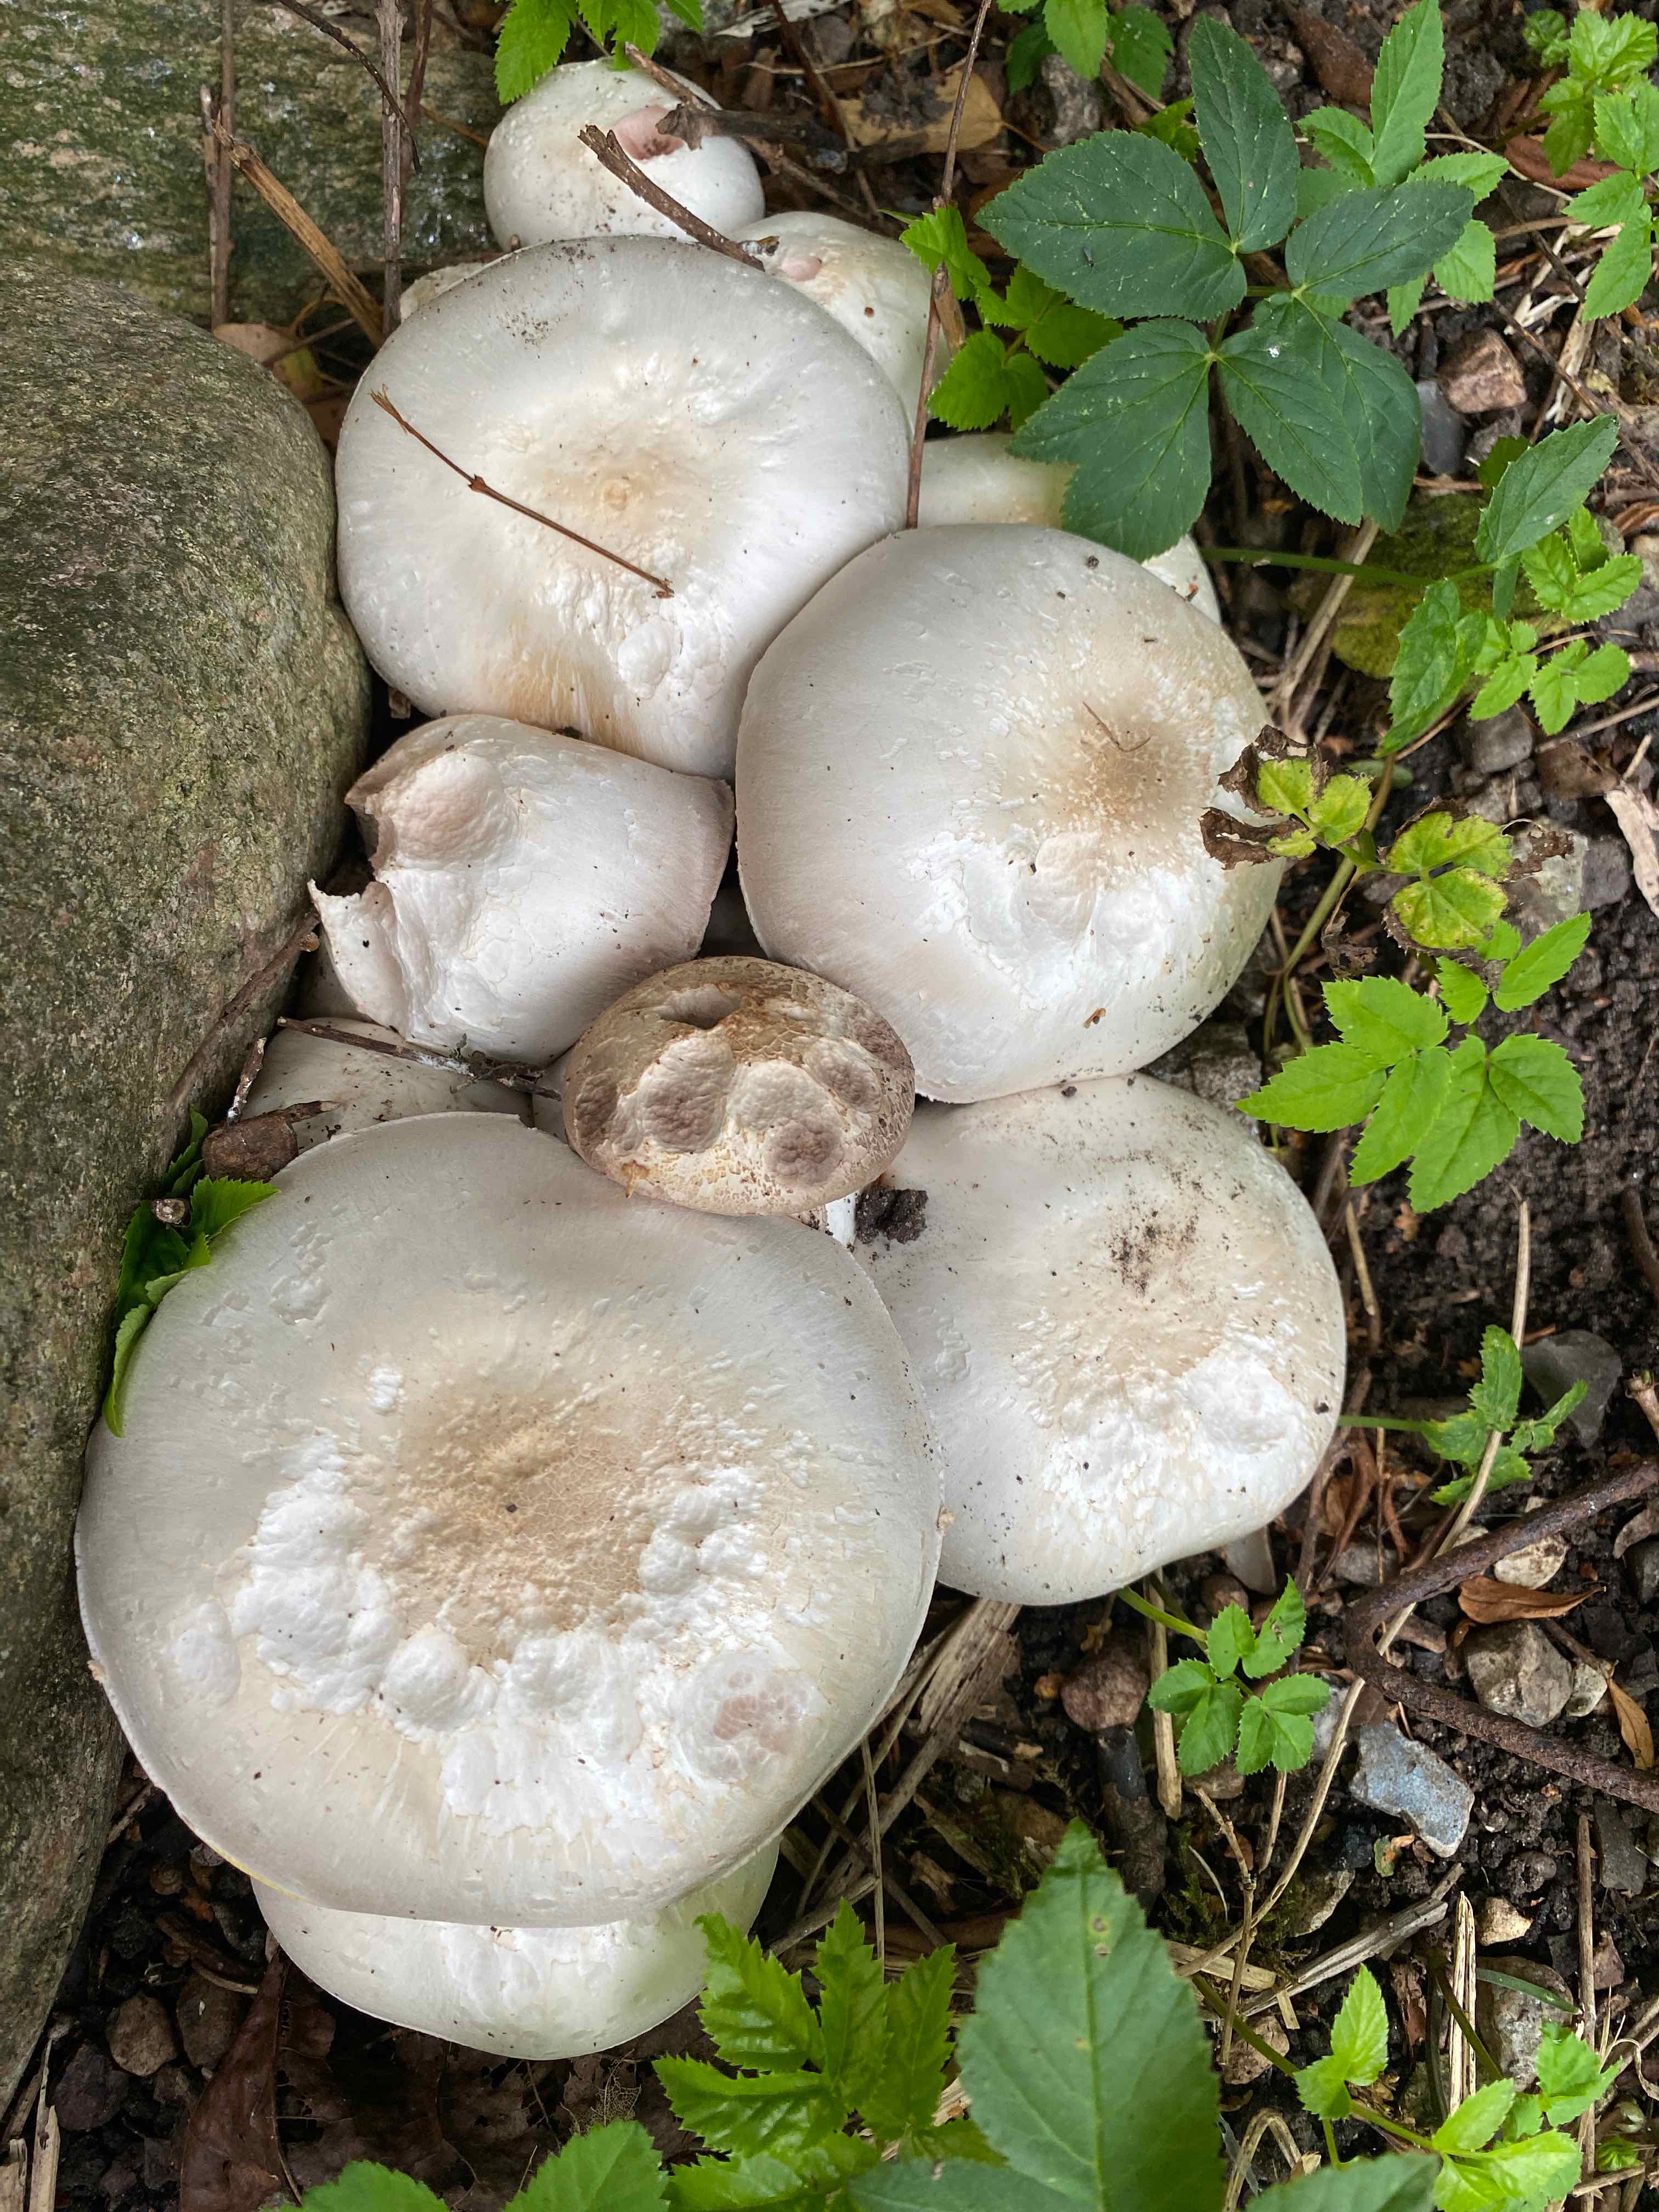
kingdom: Fungi
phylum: Basidiomycota
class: Agaricomycetes
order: Agaricales
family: Agaricaceae
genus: Agaricus
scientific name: Agaricus
